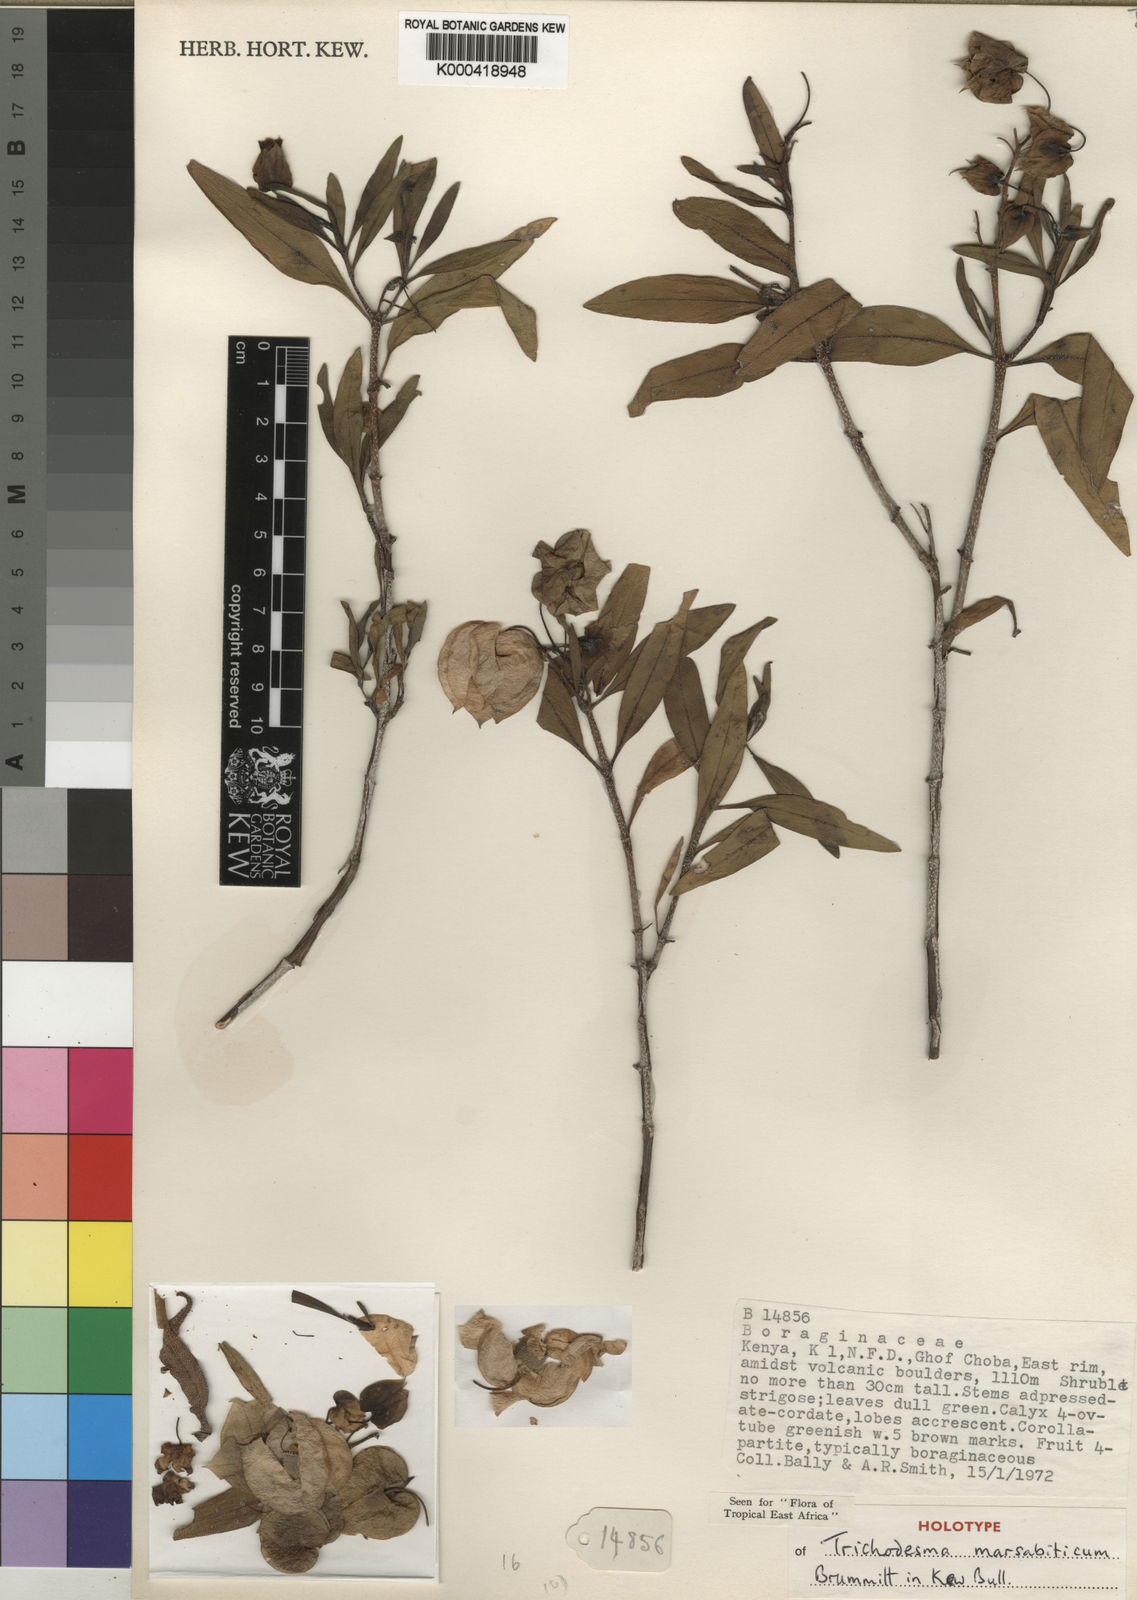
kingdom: Plantae
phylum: Tracheophyta
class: Magnoliopsida
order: Boraginales
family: Boraginaceae
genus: Trichodesma
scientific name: Trichodesma marsabiticum
